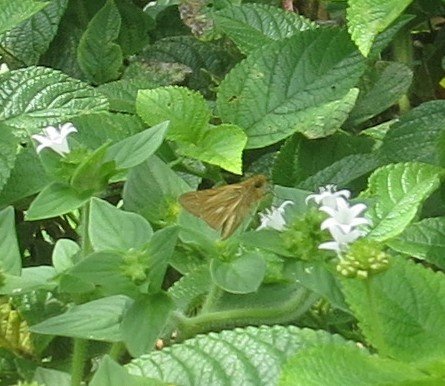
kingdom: Animalia
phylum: Arthropoda
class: Insecta
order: Lepidoptera
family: Hesperiidae
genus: Panoquina
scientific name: Panoquina panoquin
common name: Salt Marsh Skipper
